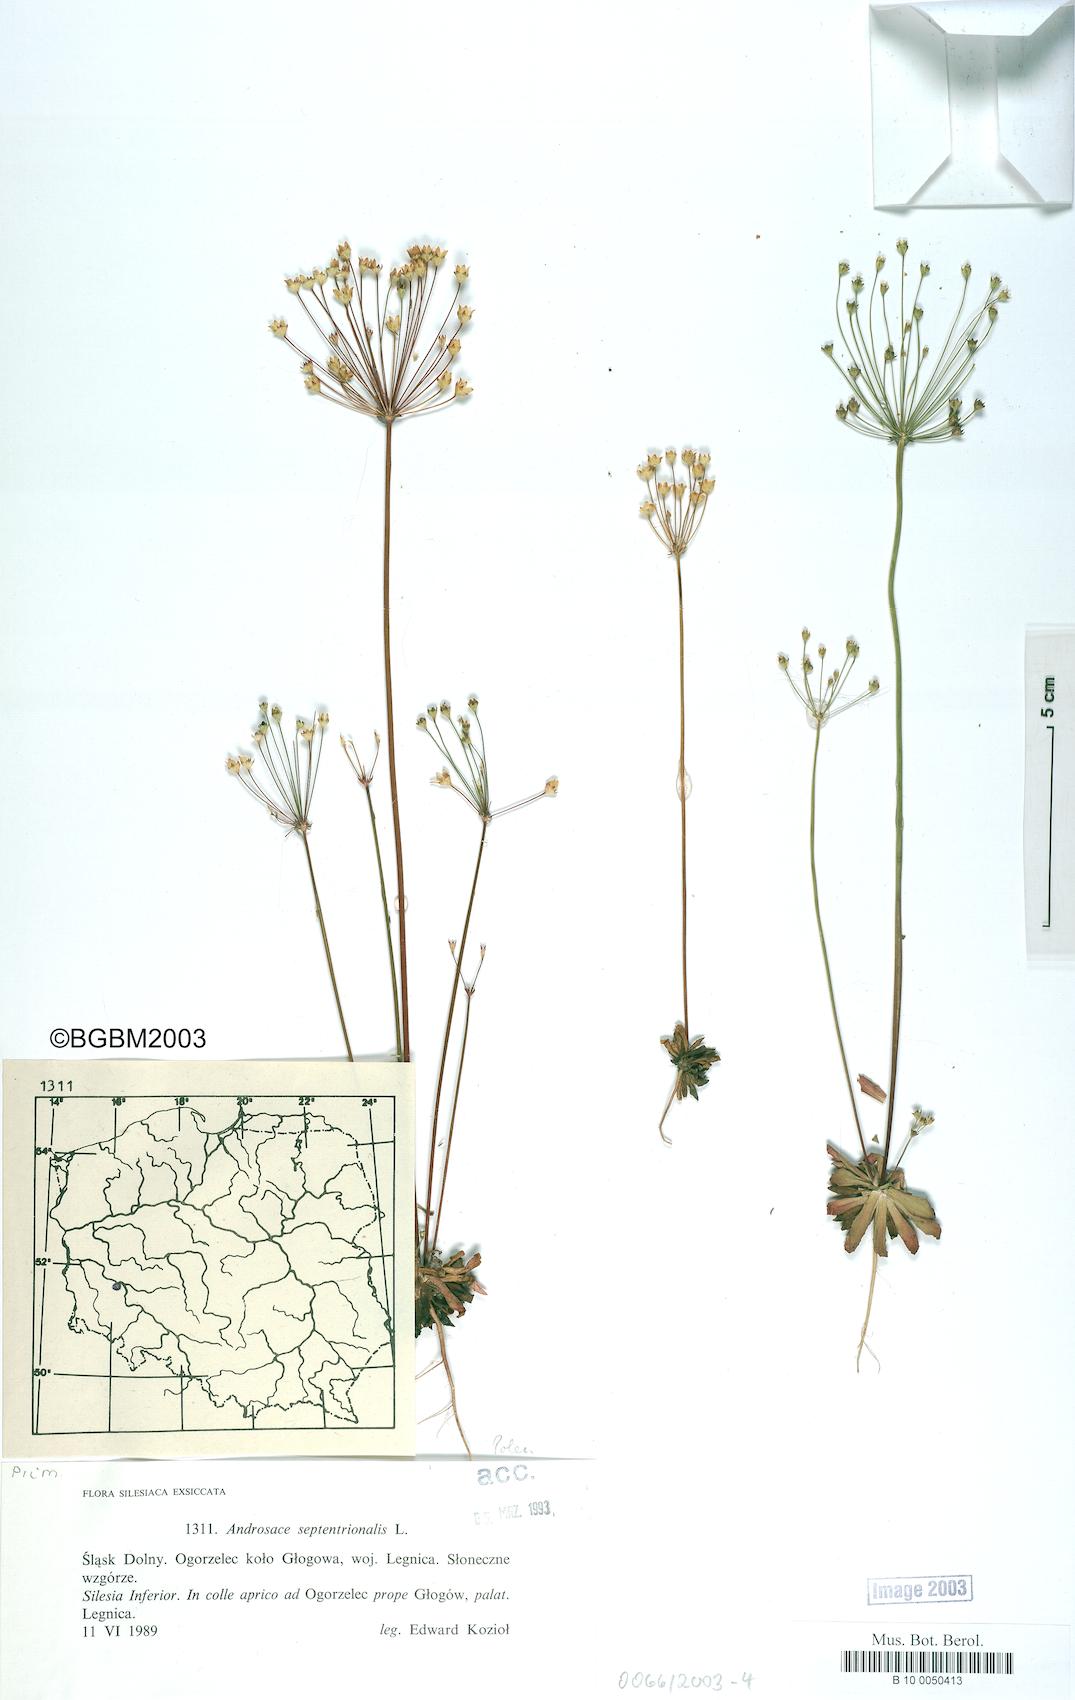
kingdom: Plantae
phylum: Tracheophyta
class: Magnoliopsida
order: Ericales
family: Primulaceae
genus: Androsace
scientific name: Androsace septentrionalis
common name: Hairy northern fairy-candelabra
